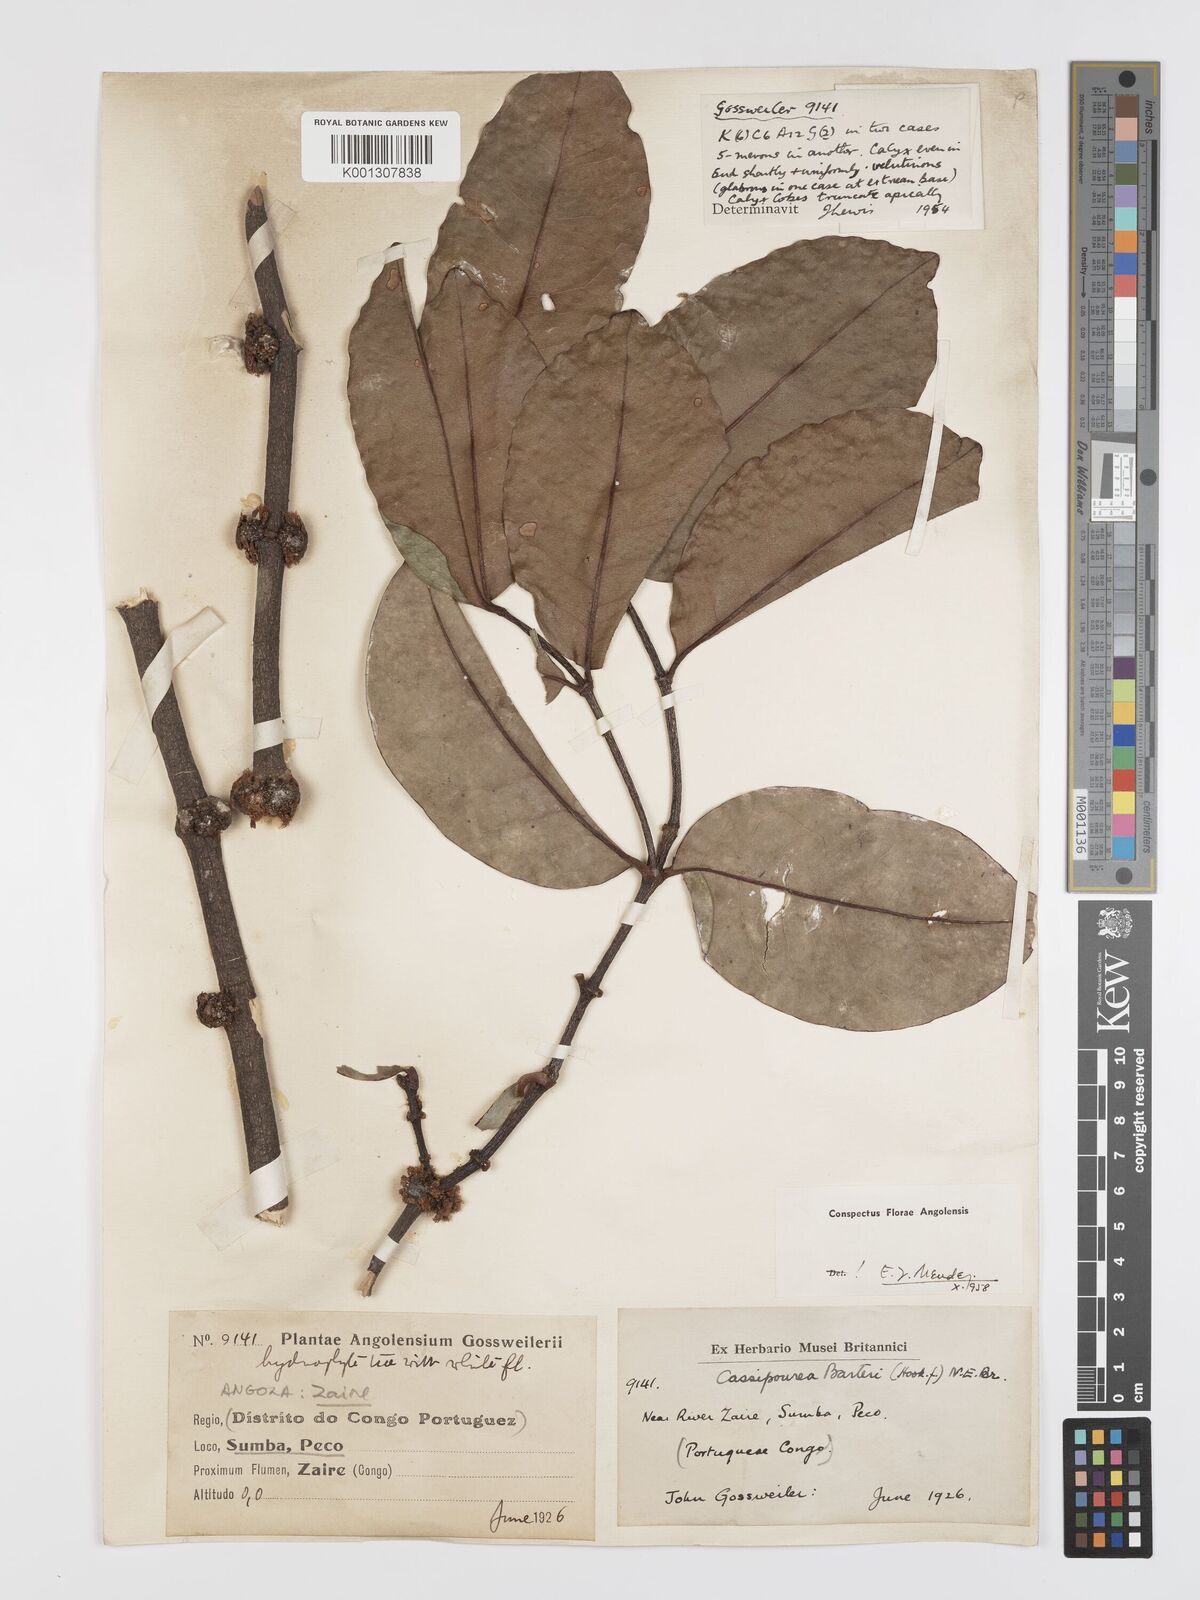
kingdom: Plantae
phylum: Tracheophyta
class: Magnoliopsida
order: Malpighiales
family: Rhizophoraceae
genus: Cassipourea
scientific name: Cassipourea
